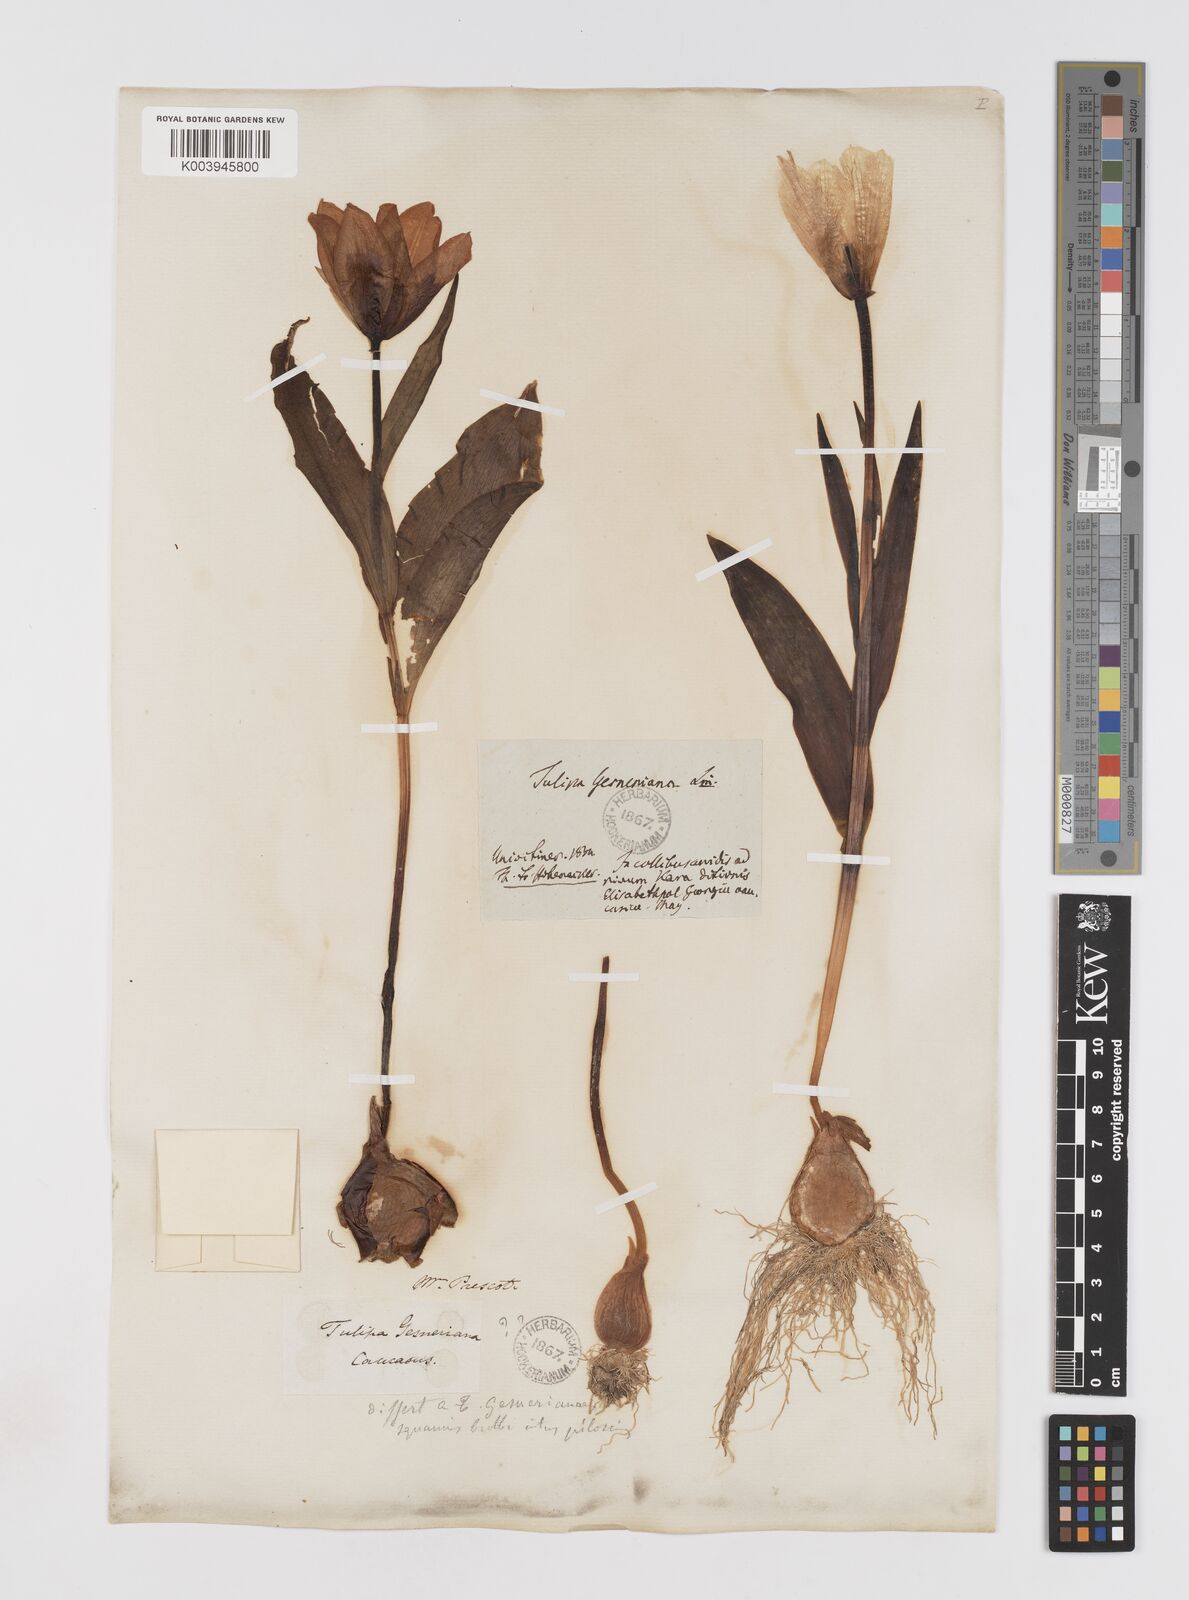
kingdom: Plantae
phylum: Tracheophyta
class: Liliopsida
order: Liliales
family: Liliaceae
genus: Tulipa
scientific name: Tulipa armena
